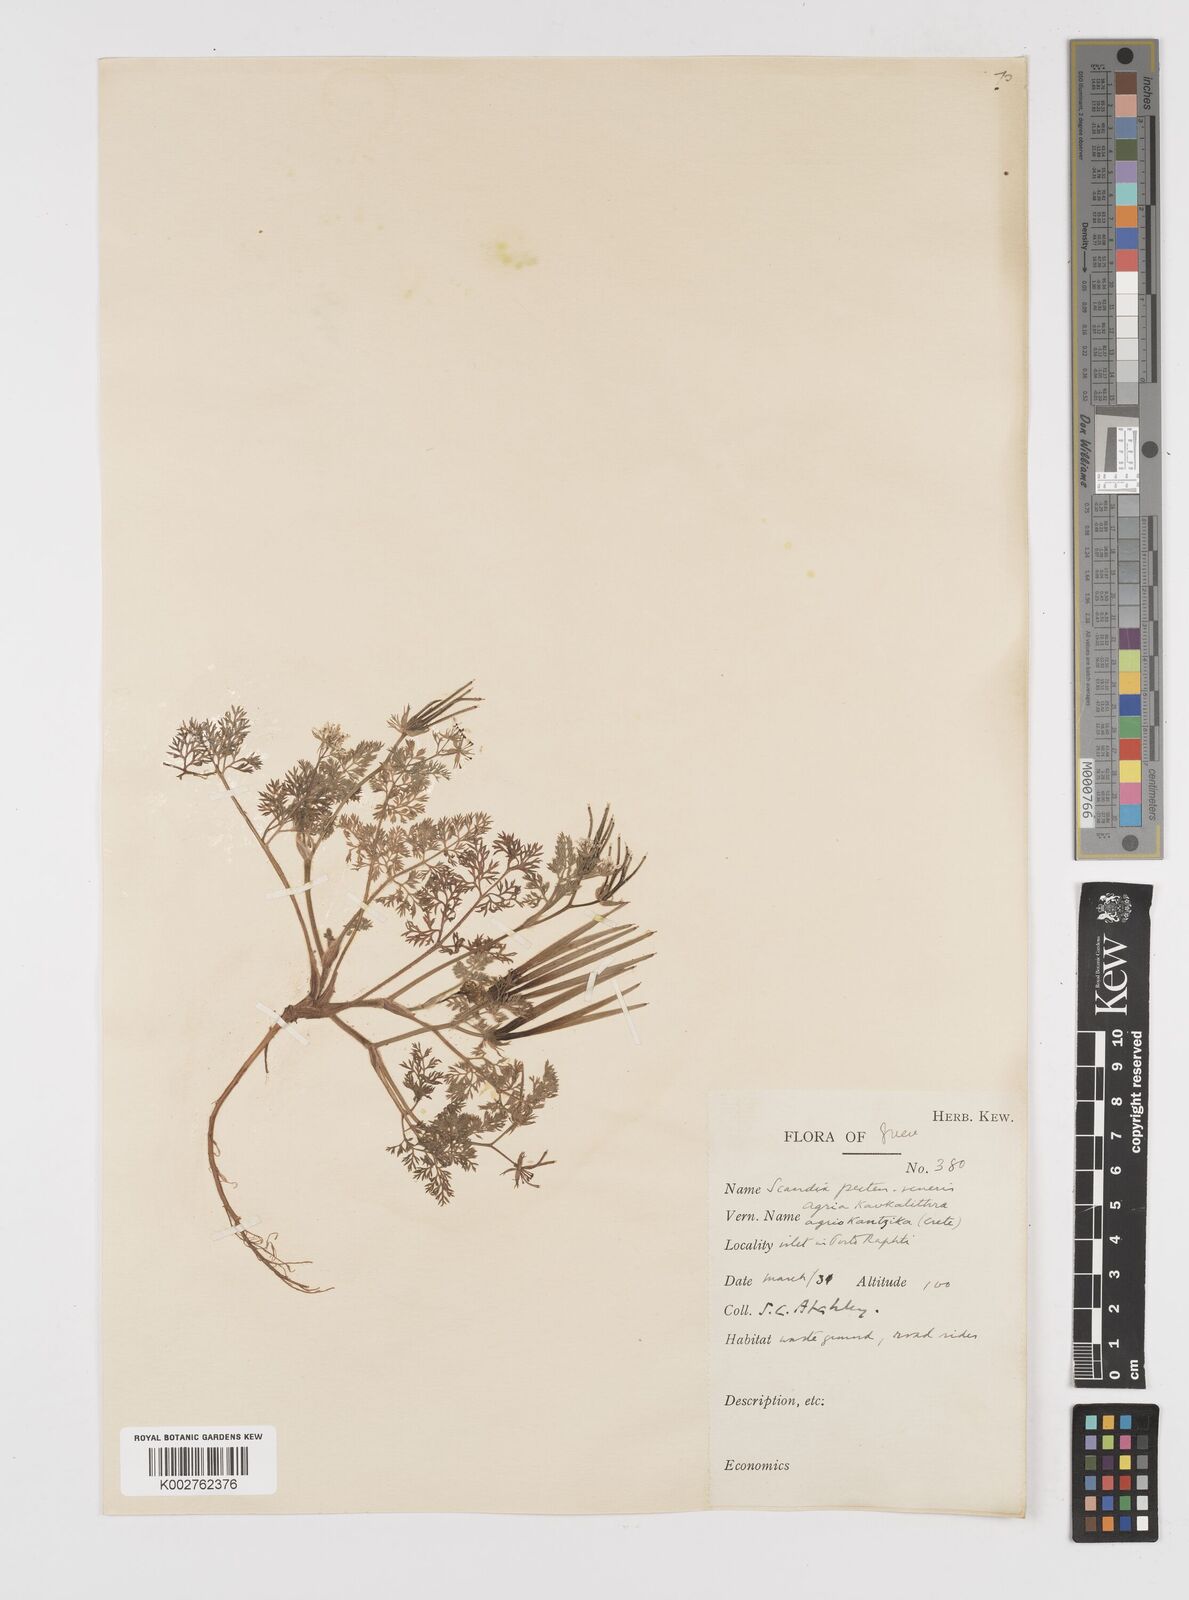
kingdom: Plantae
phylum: Tracheophyta
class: Magnoliopsida
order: Apiales
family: Apiaceae
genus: Scandix
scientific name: Scandix pecten-veneris
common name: Shepherd's-needle
